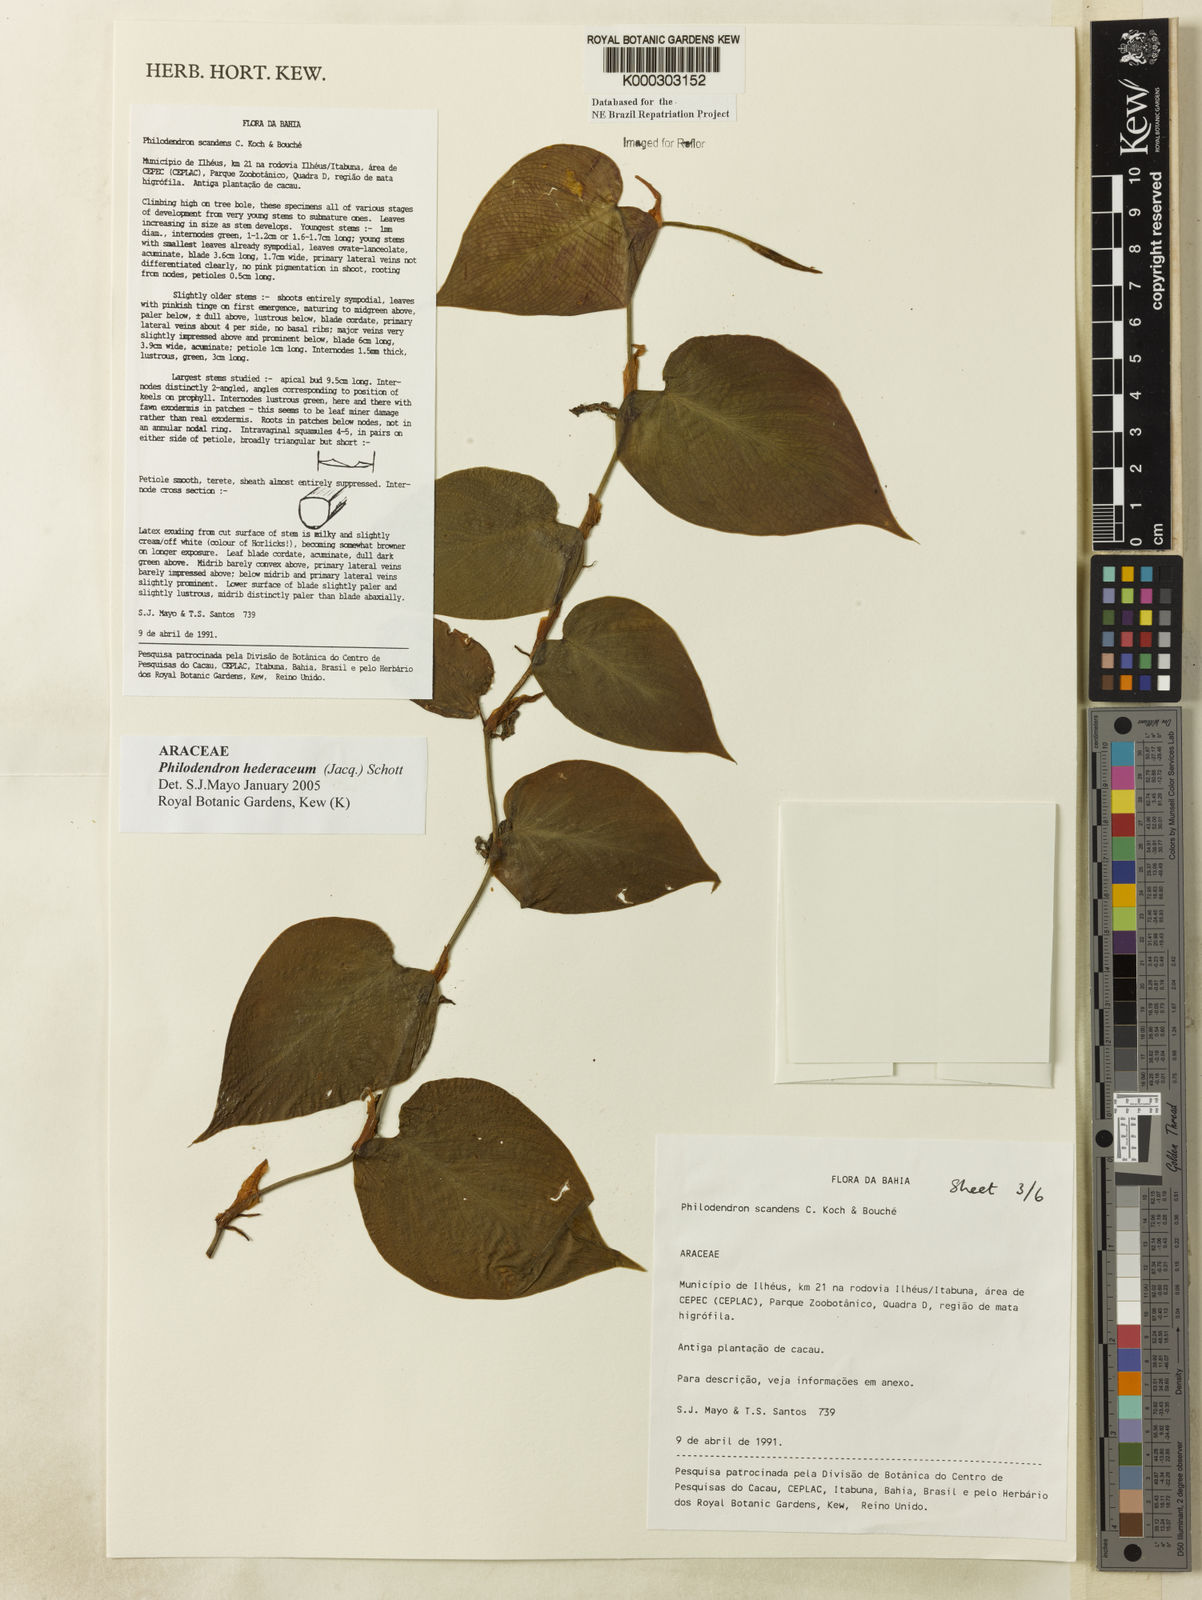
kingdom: Plantae
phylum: Tracheophyta
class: Liliopsida
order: Alismatales
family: Araceae
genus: Philodendron
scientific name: Philodendron hederaceum
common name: Vilevine
